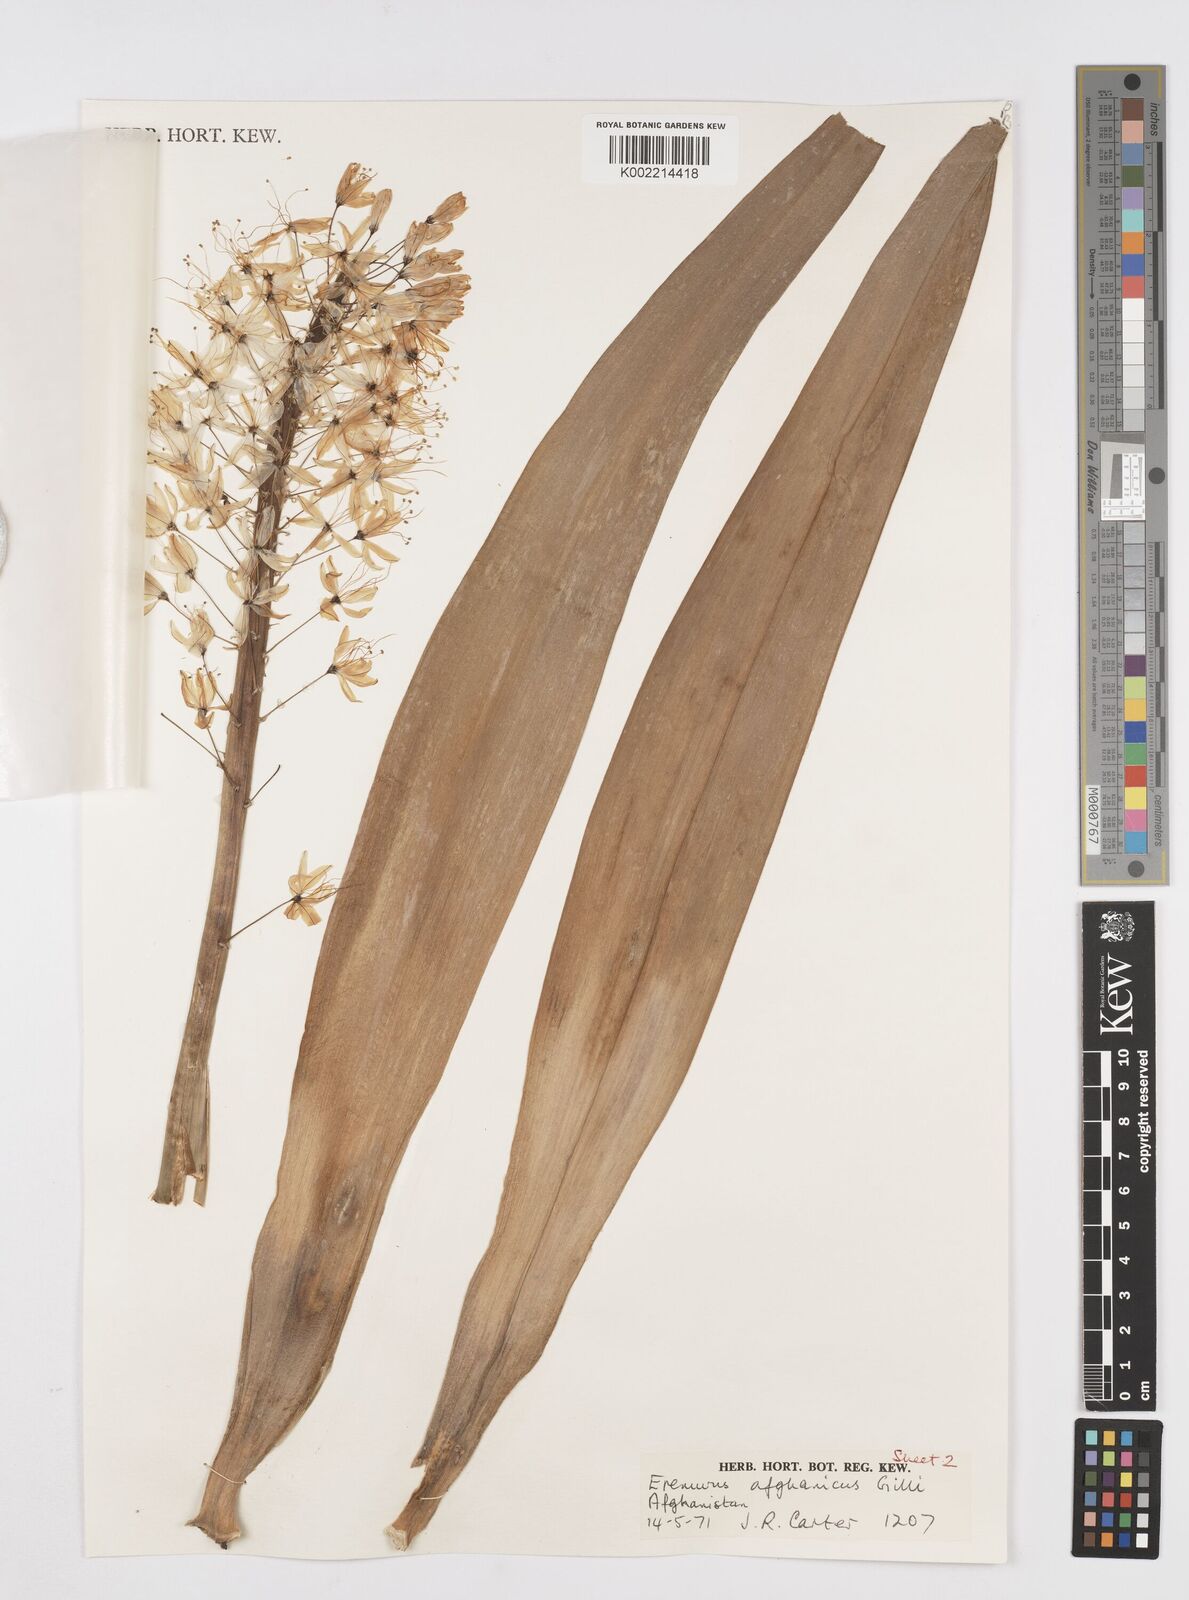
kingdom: Plantae
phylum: Tracheophyta
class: Liliopsida
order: Asparagales
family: Asphodelaceae
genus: Eremurus
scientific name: Eremurus afghanicus
